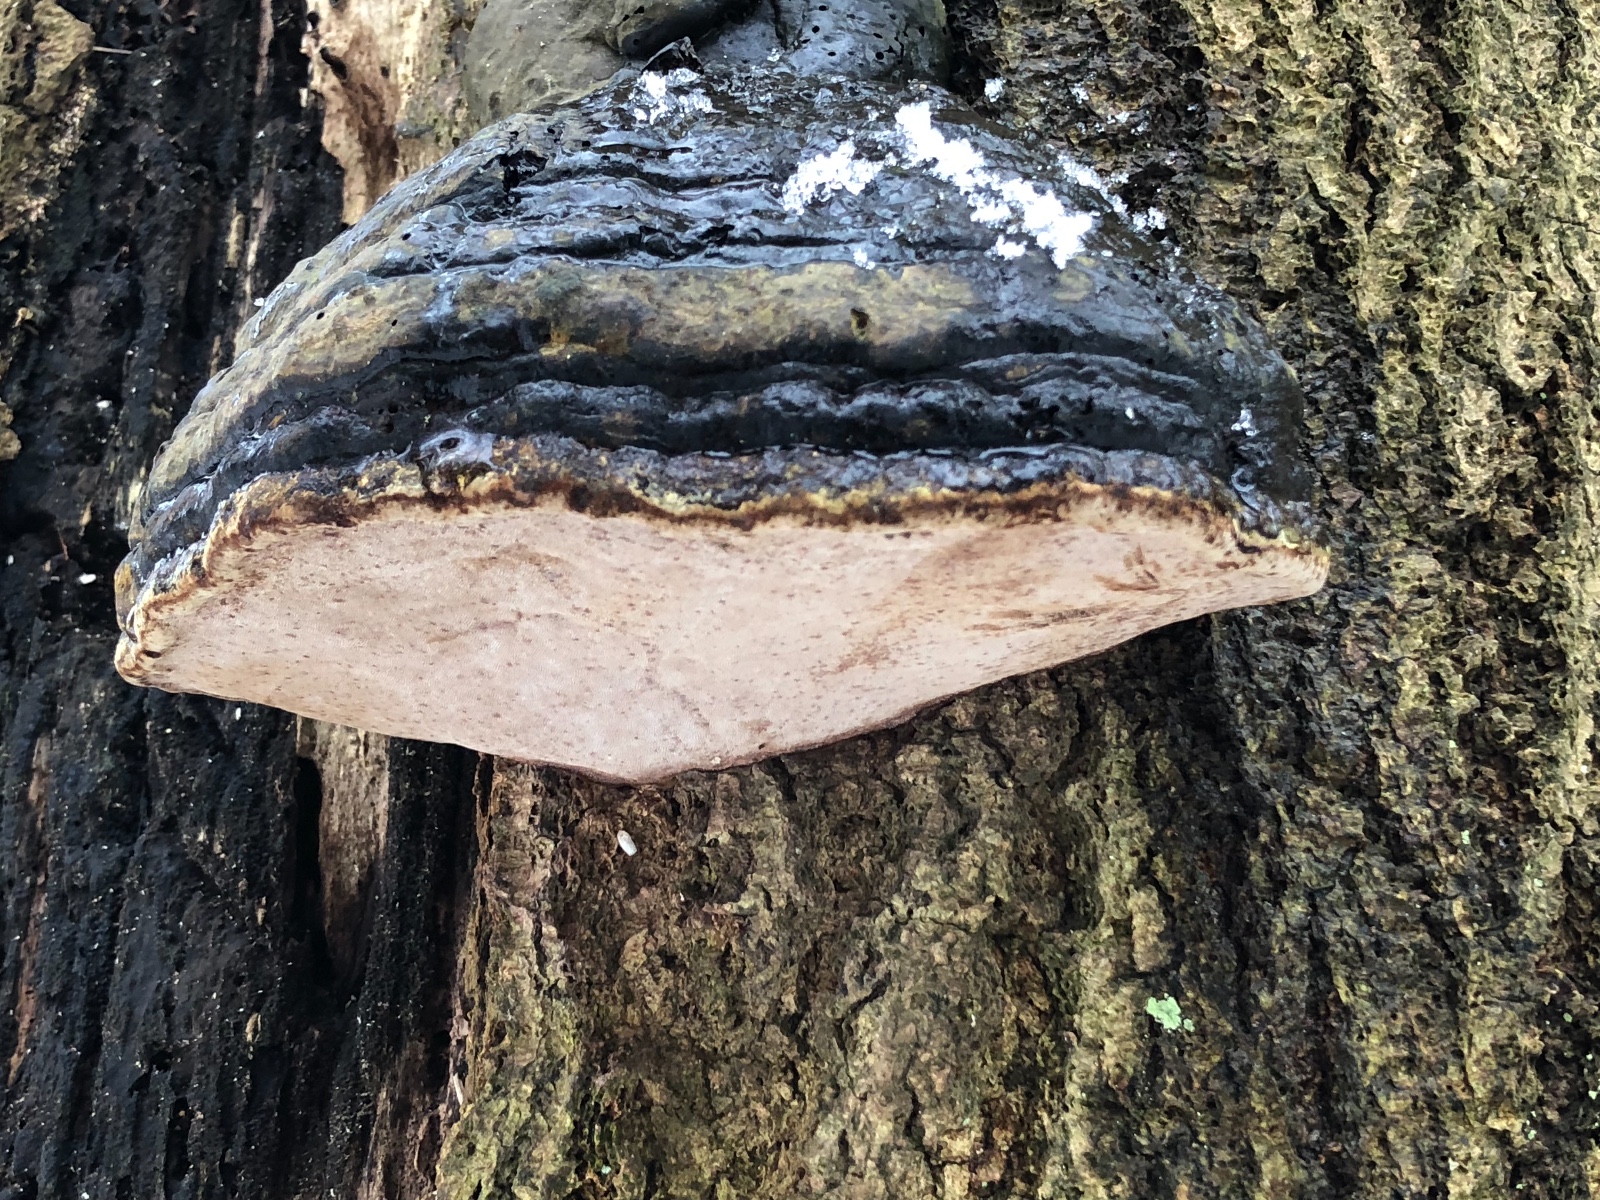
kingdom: Fungi
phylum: Basidiomycota
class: Agaricomycetes
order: Polyporales
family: Polyporaceae
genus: Fomes
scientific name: Fomes fomentarius
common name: tøndersvamp
